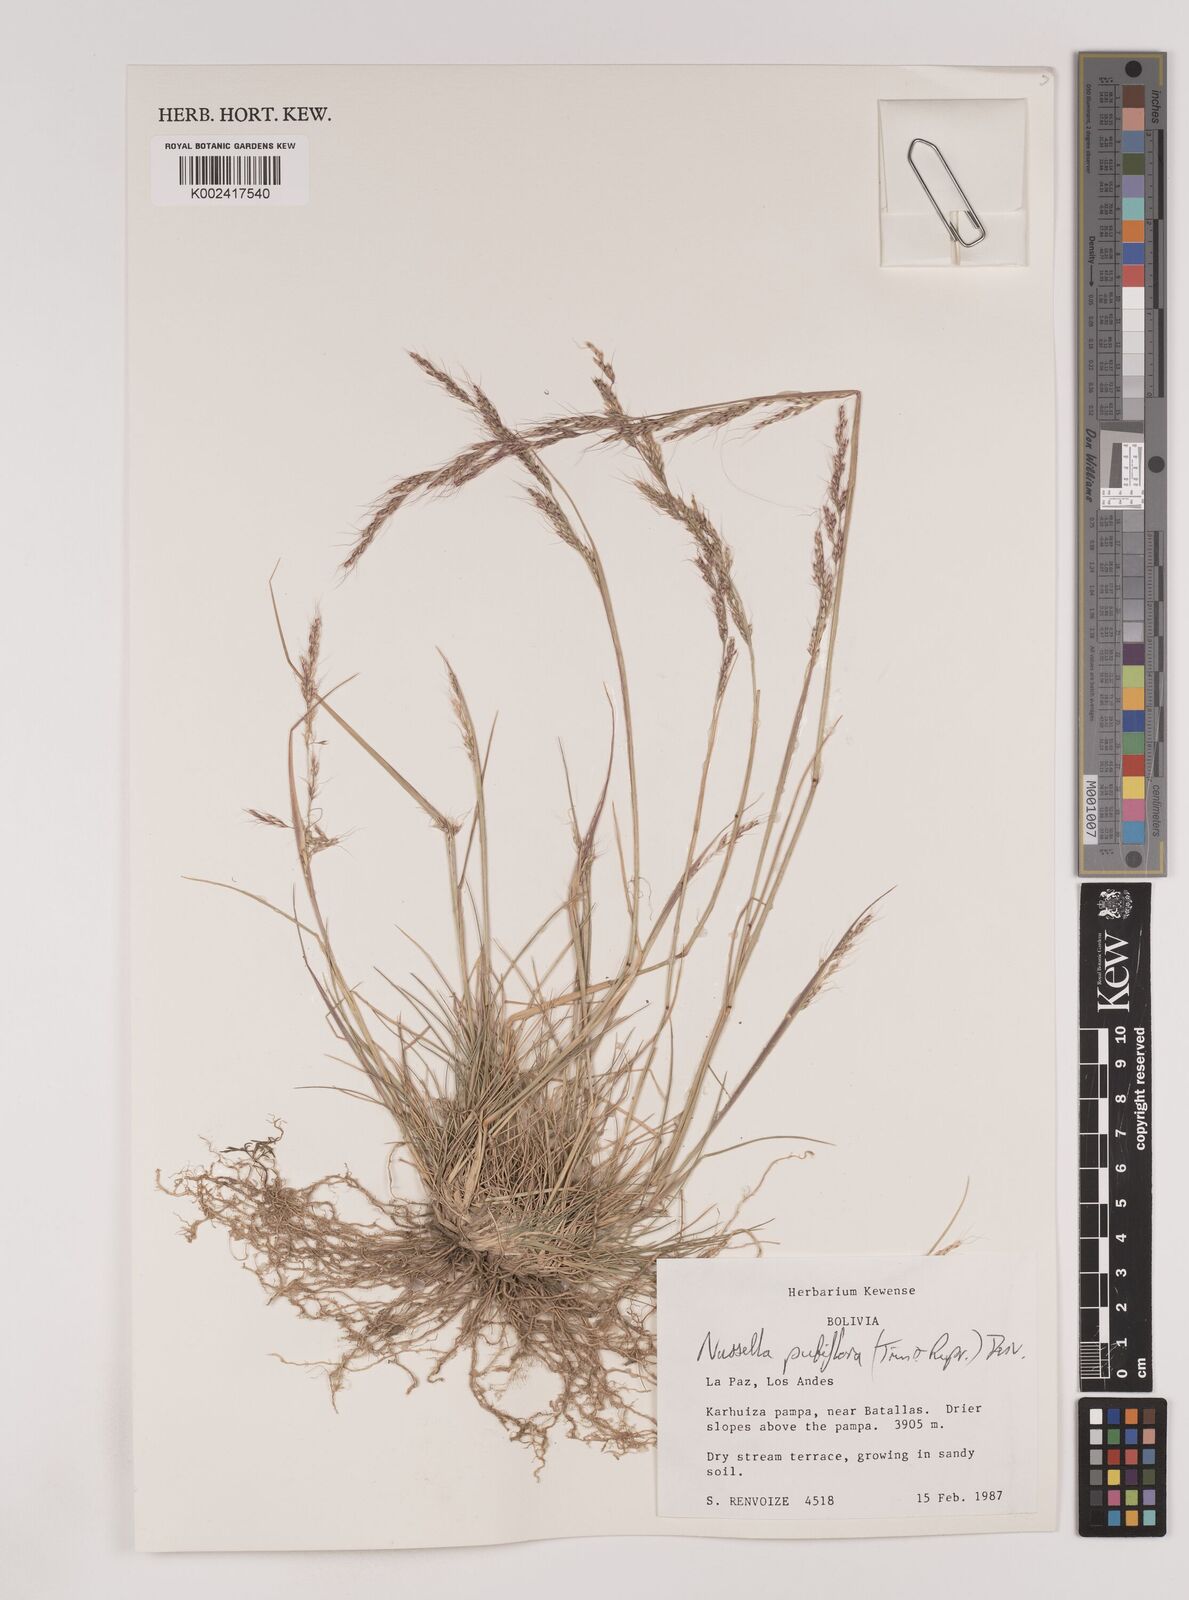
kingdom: Plantae
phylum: Tracheophyta
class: Liliopsida
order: Poales
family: Poaceae
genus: Nassella
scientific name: Nassella pubiflora
